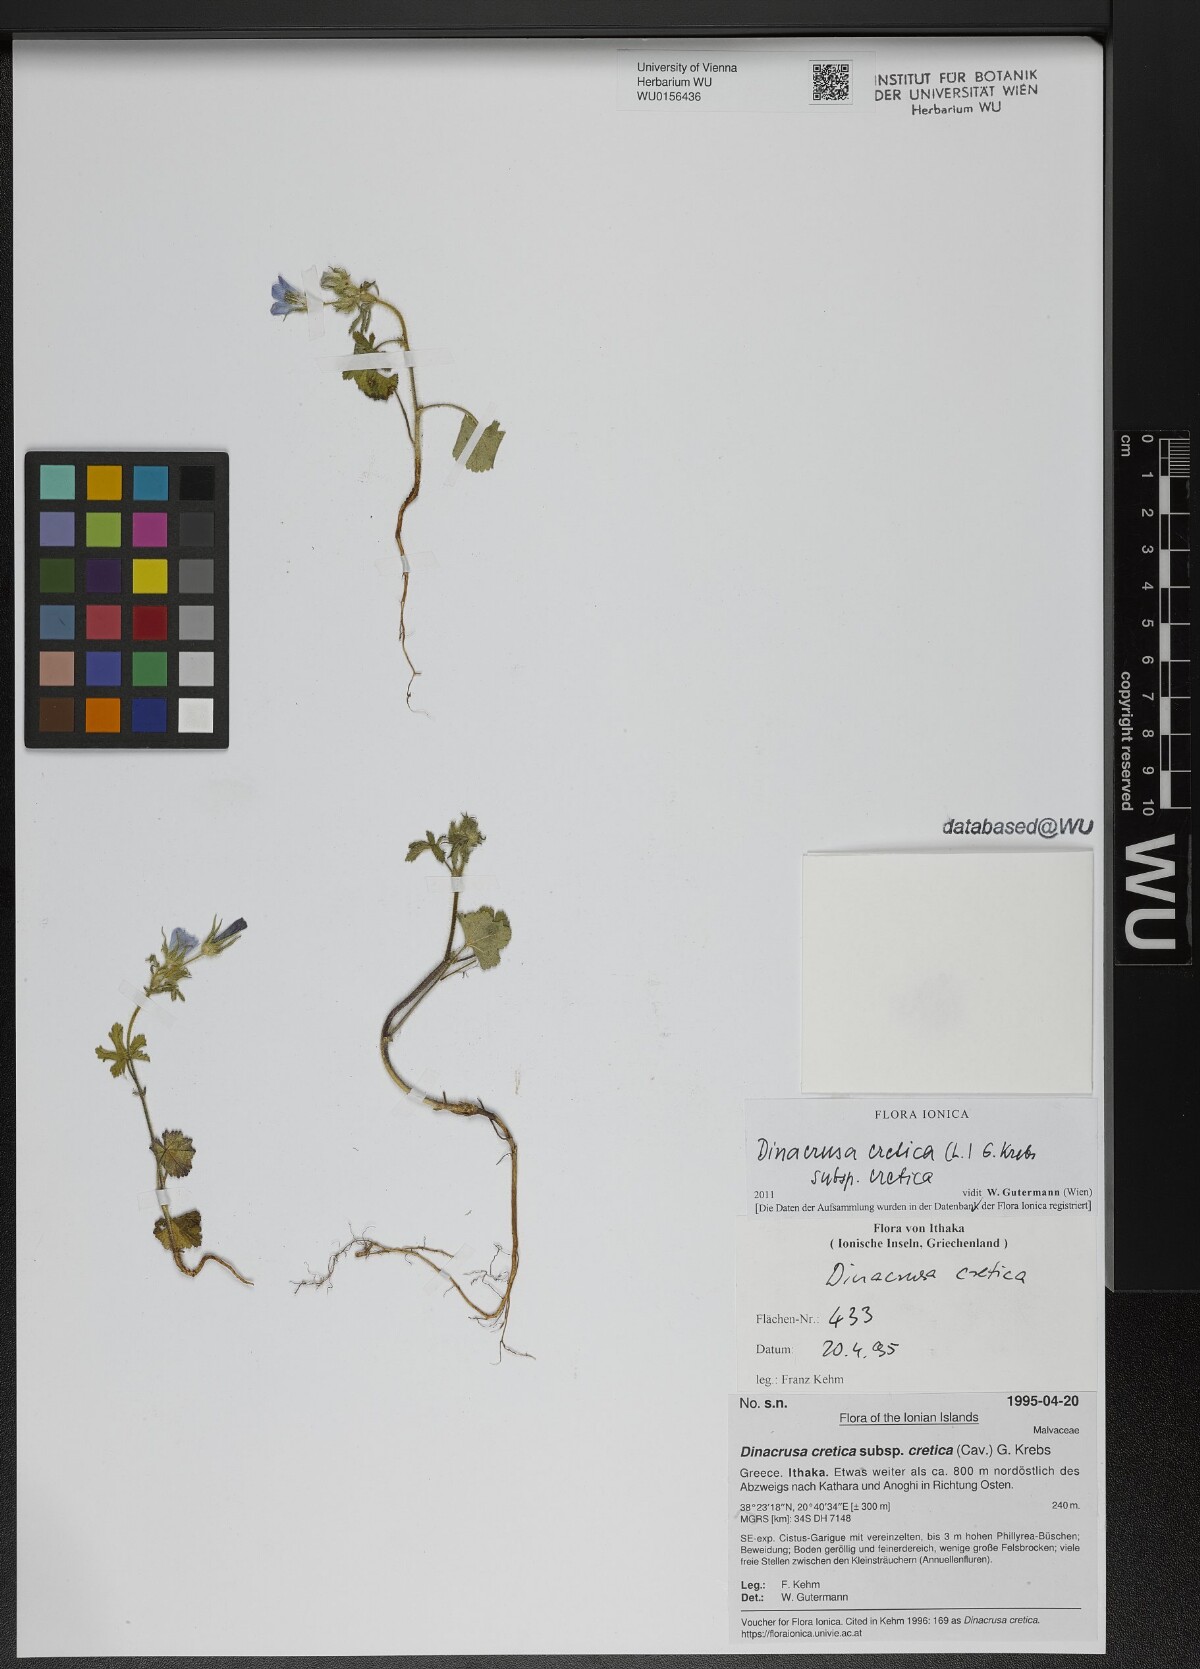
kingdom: Plantae
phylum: Tracheophyta
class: Magnoliopsida
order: Malvales
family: Malvaceae
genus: Malva
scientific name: Malva cretica
